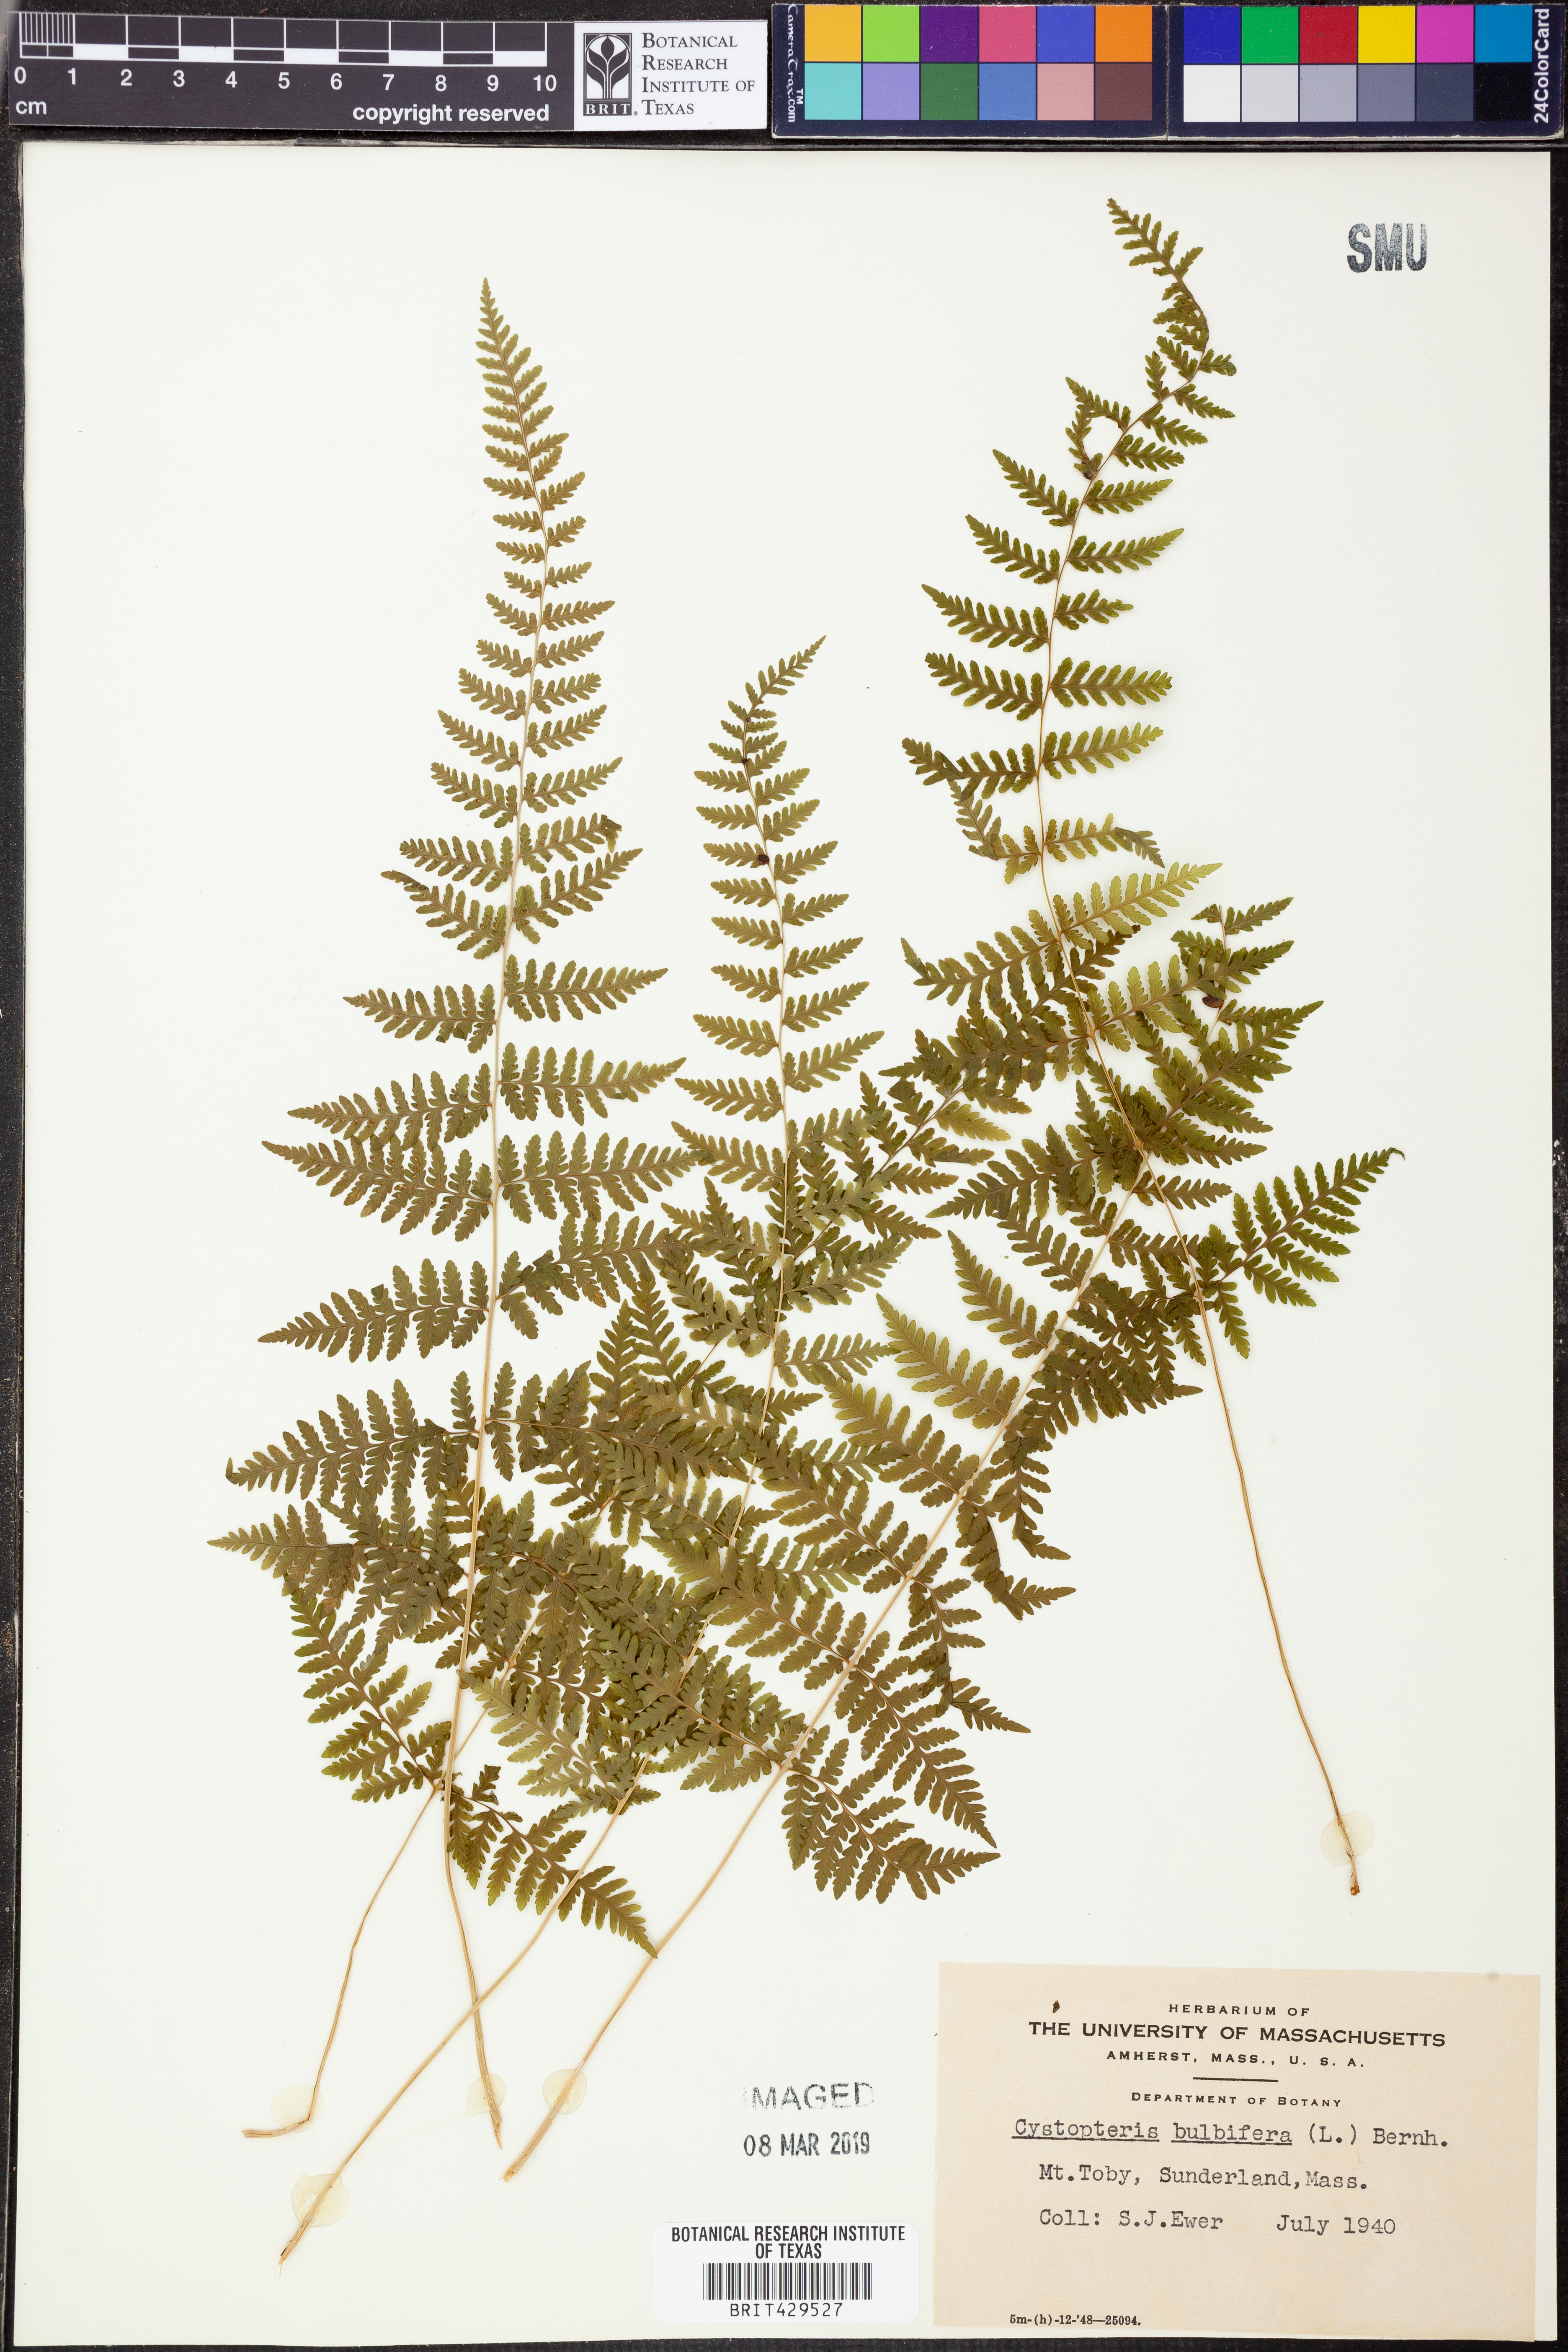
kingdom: Plantae
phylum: Tracheophyta
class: Polypodiopsida
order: Polypodiales
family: Cystopteridaceae
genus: Cystopteris
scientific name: Cystopteris bulbifera
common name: Bulblet bladder fern
